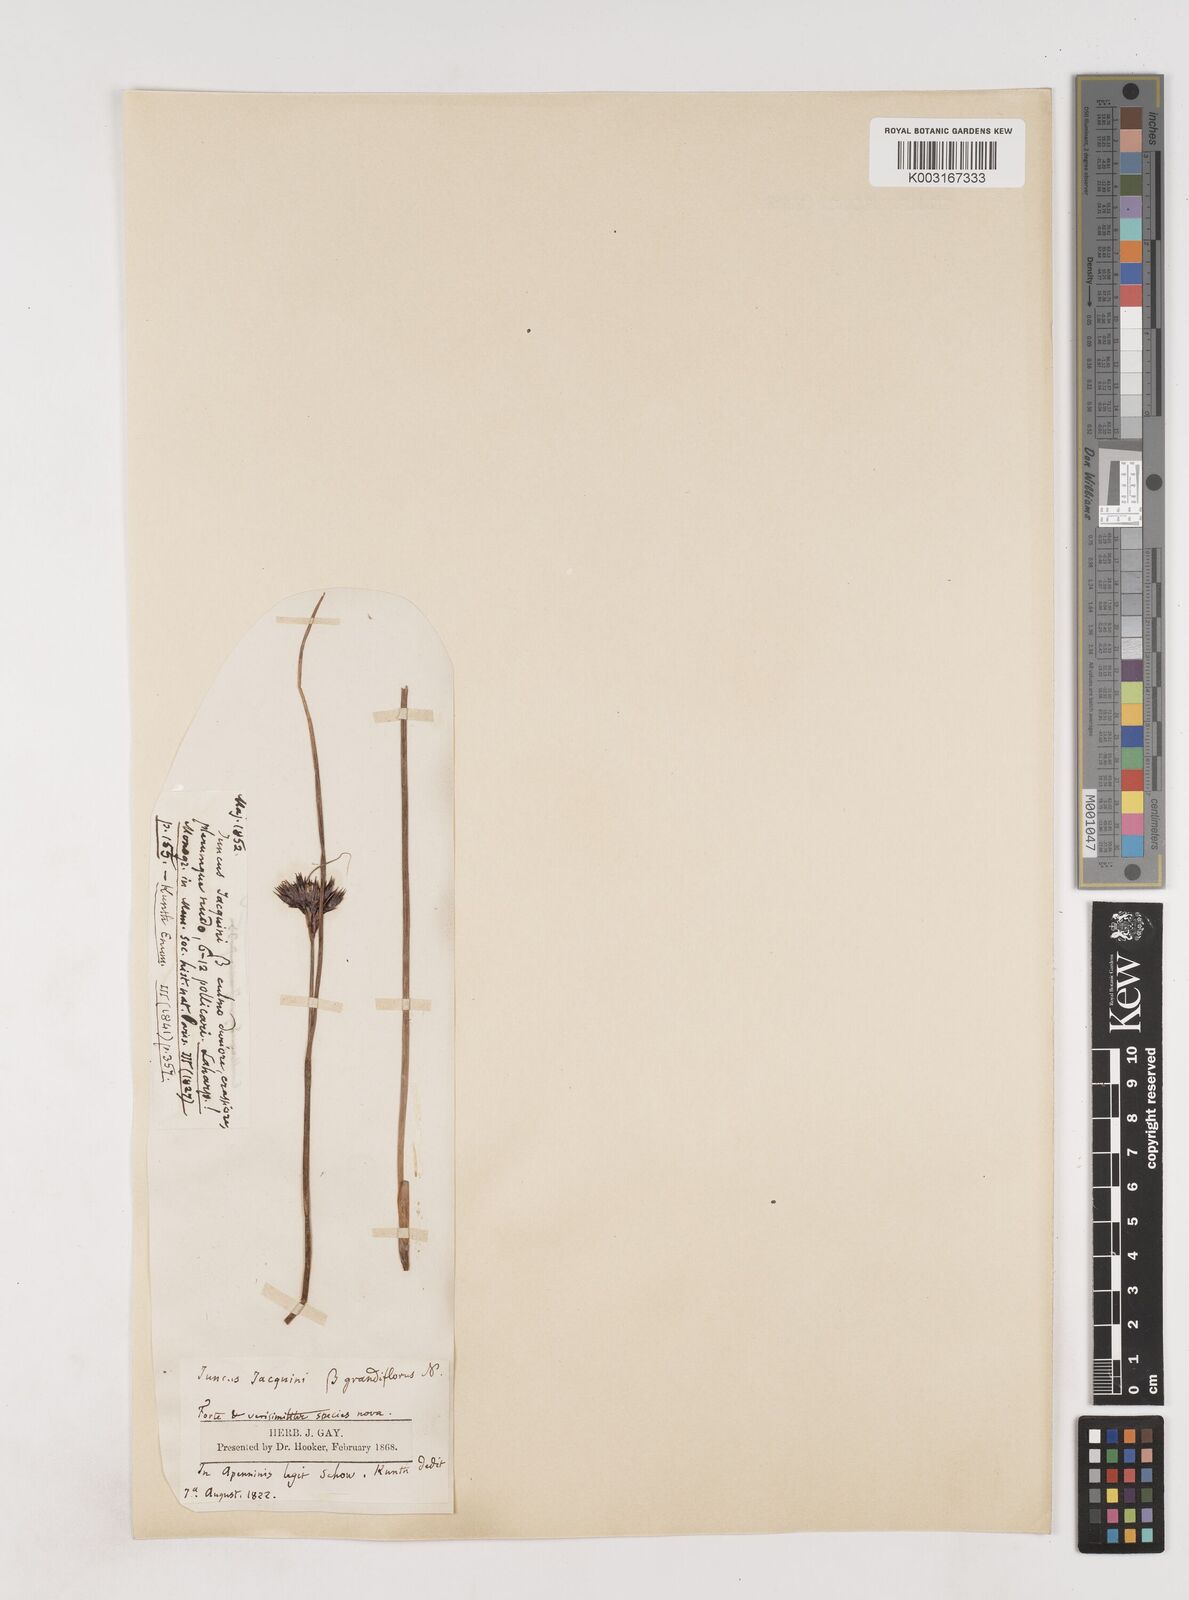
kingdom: Plantae
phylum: Tracheophyta
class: Liliopsida
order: Poales
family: Juncaceae
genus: Juncus
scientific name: Juncus jacquinii
